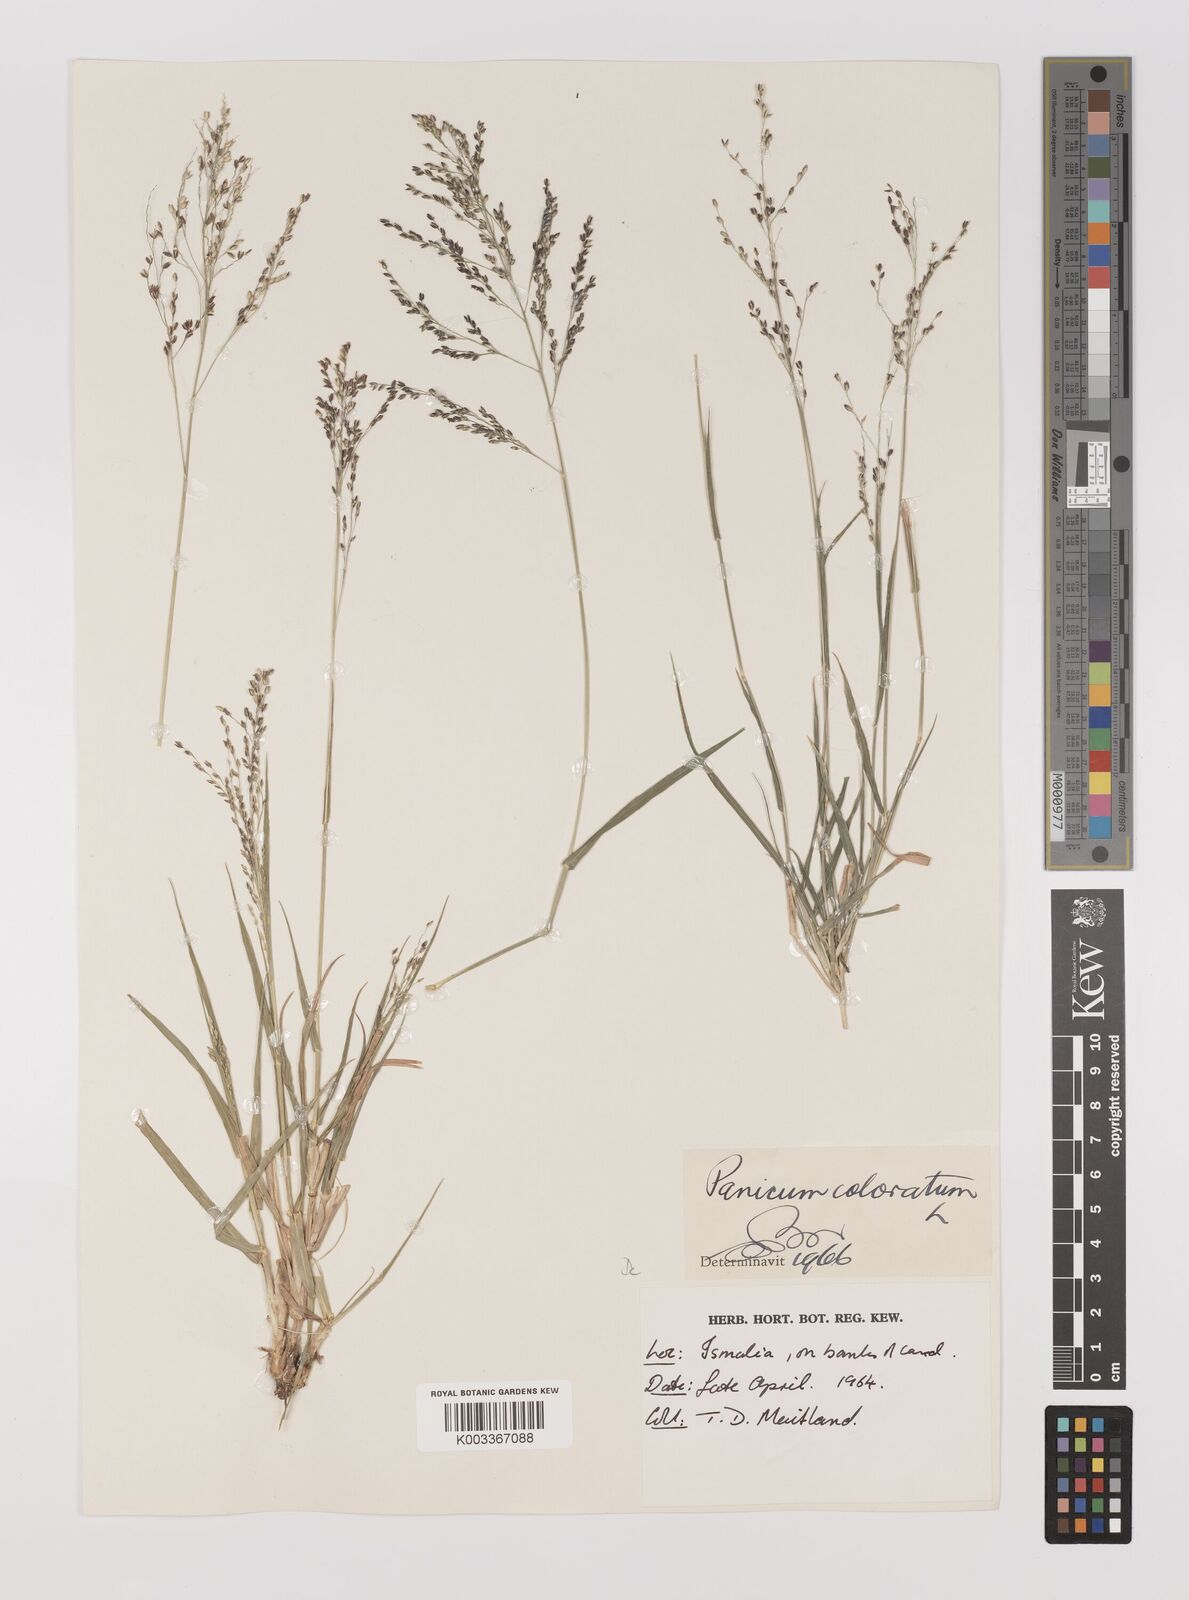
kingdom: Plantae
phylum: Tracheophyta
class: Liliopsida
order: Poales
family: Poaceae
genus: Panicum
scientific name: Panicum coloratum
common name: Kleingrass
